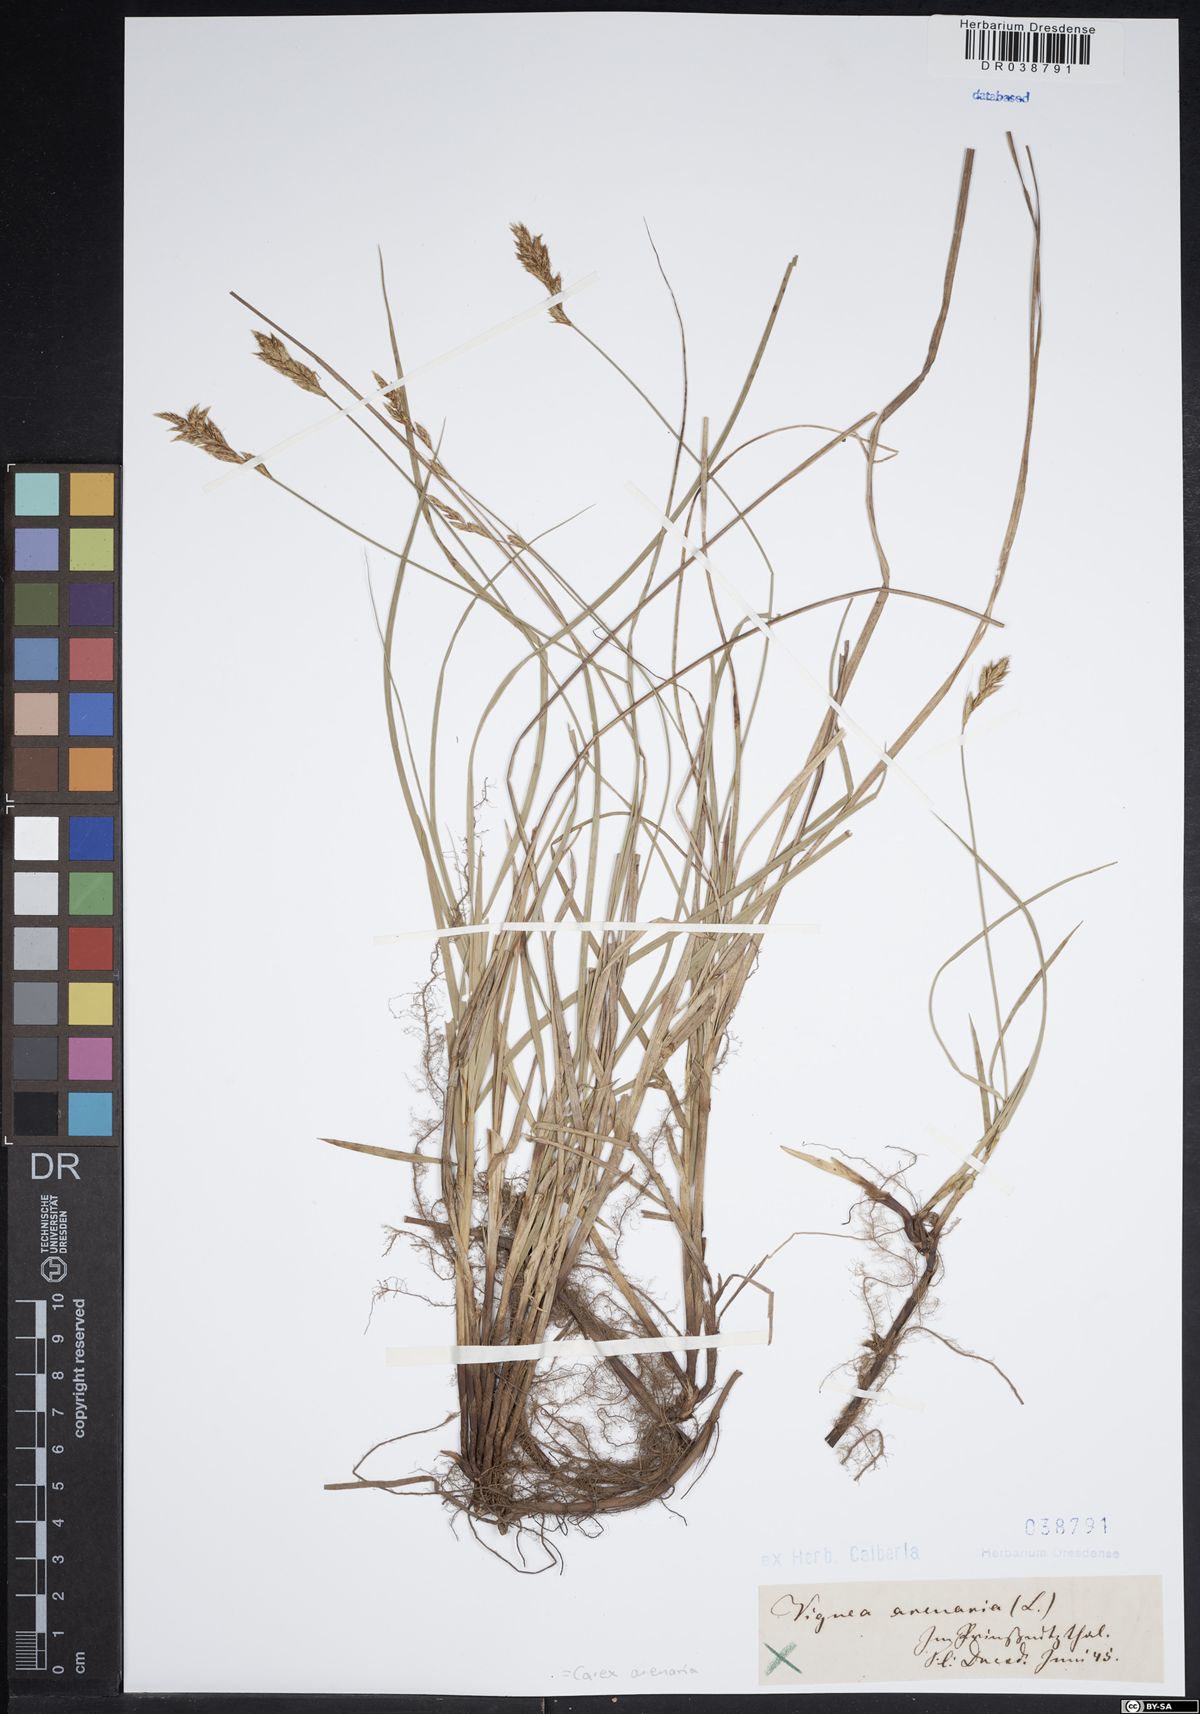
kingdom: Plantae
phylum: Tracheophyta
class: Liliopsida
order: Poales
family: Cyperaceae
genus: Carex
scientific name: Carex arenaria
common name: Sand sedge
